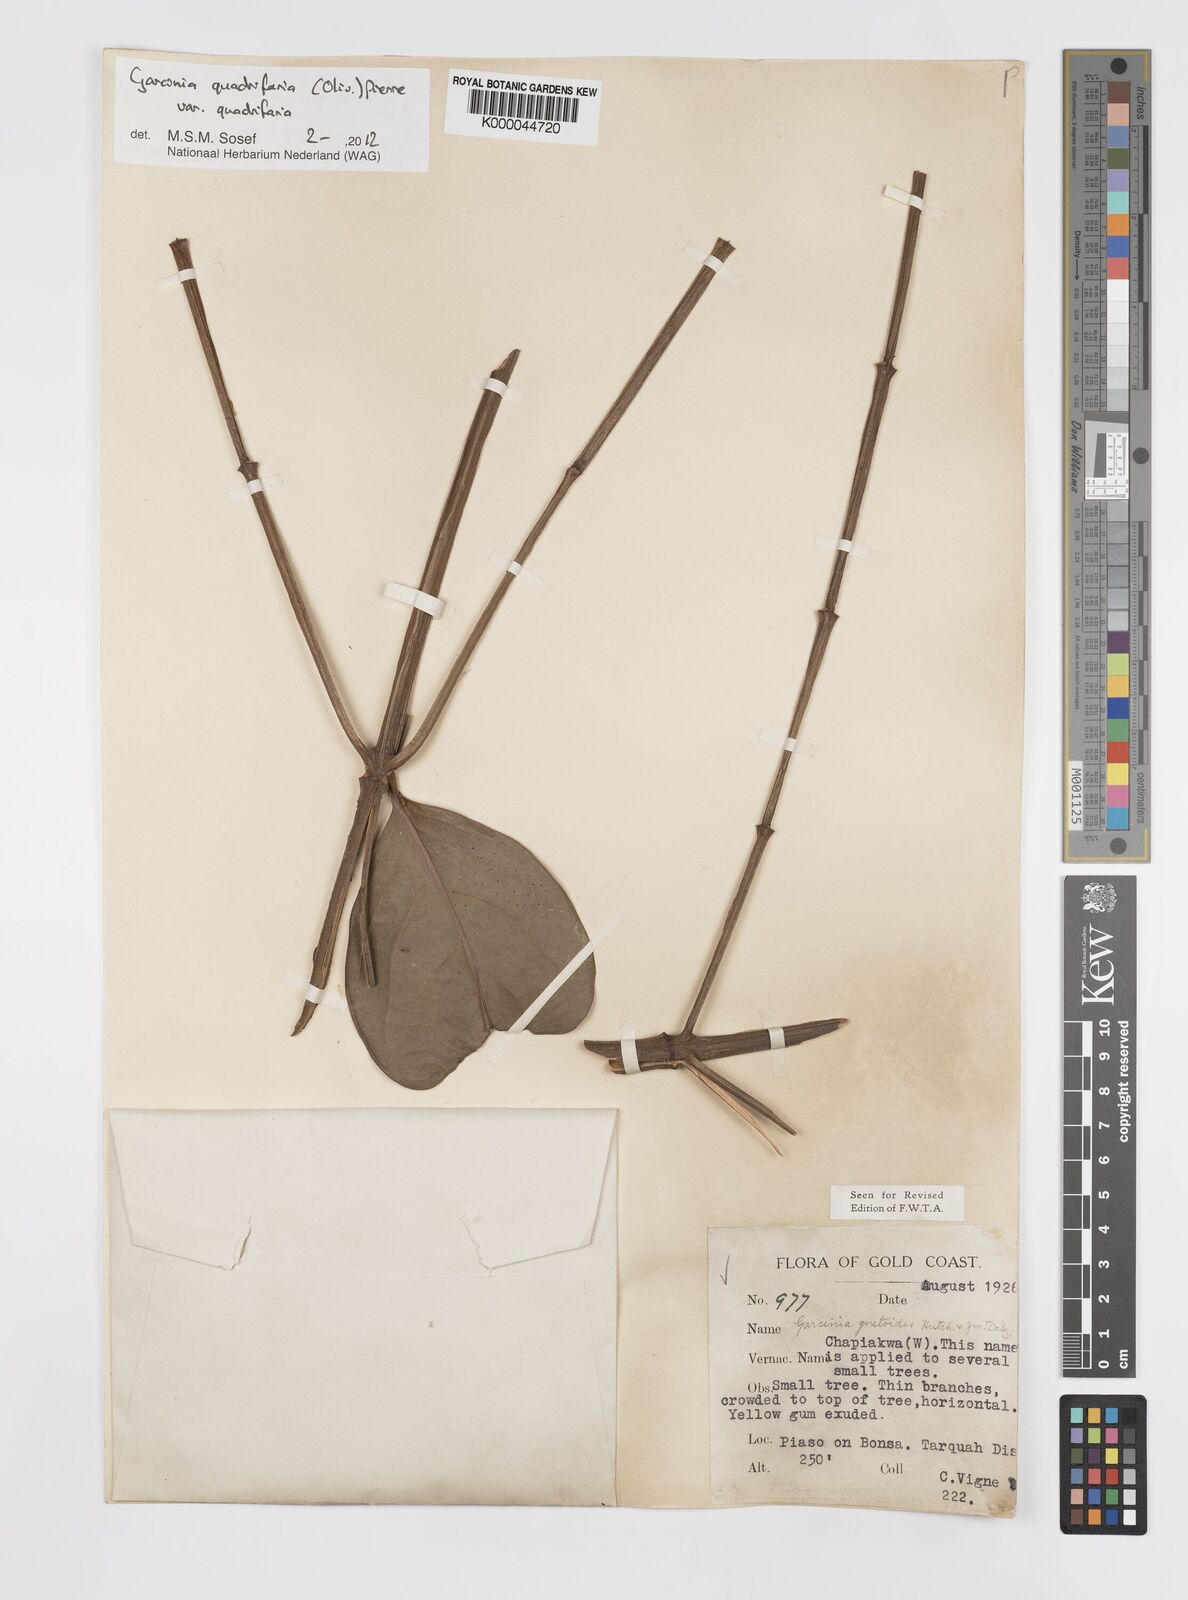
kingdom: Plantae
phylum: Tracheophyta
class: Magnoliopsida
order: Malpighiales
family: Clusiaceae
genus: Garcinia
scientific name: Garcinia gnetoides
